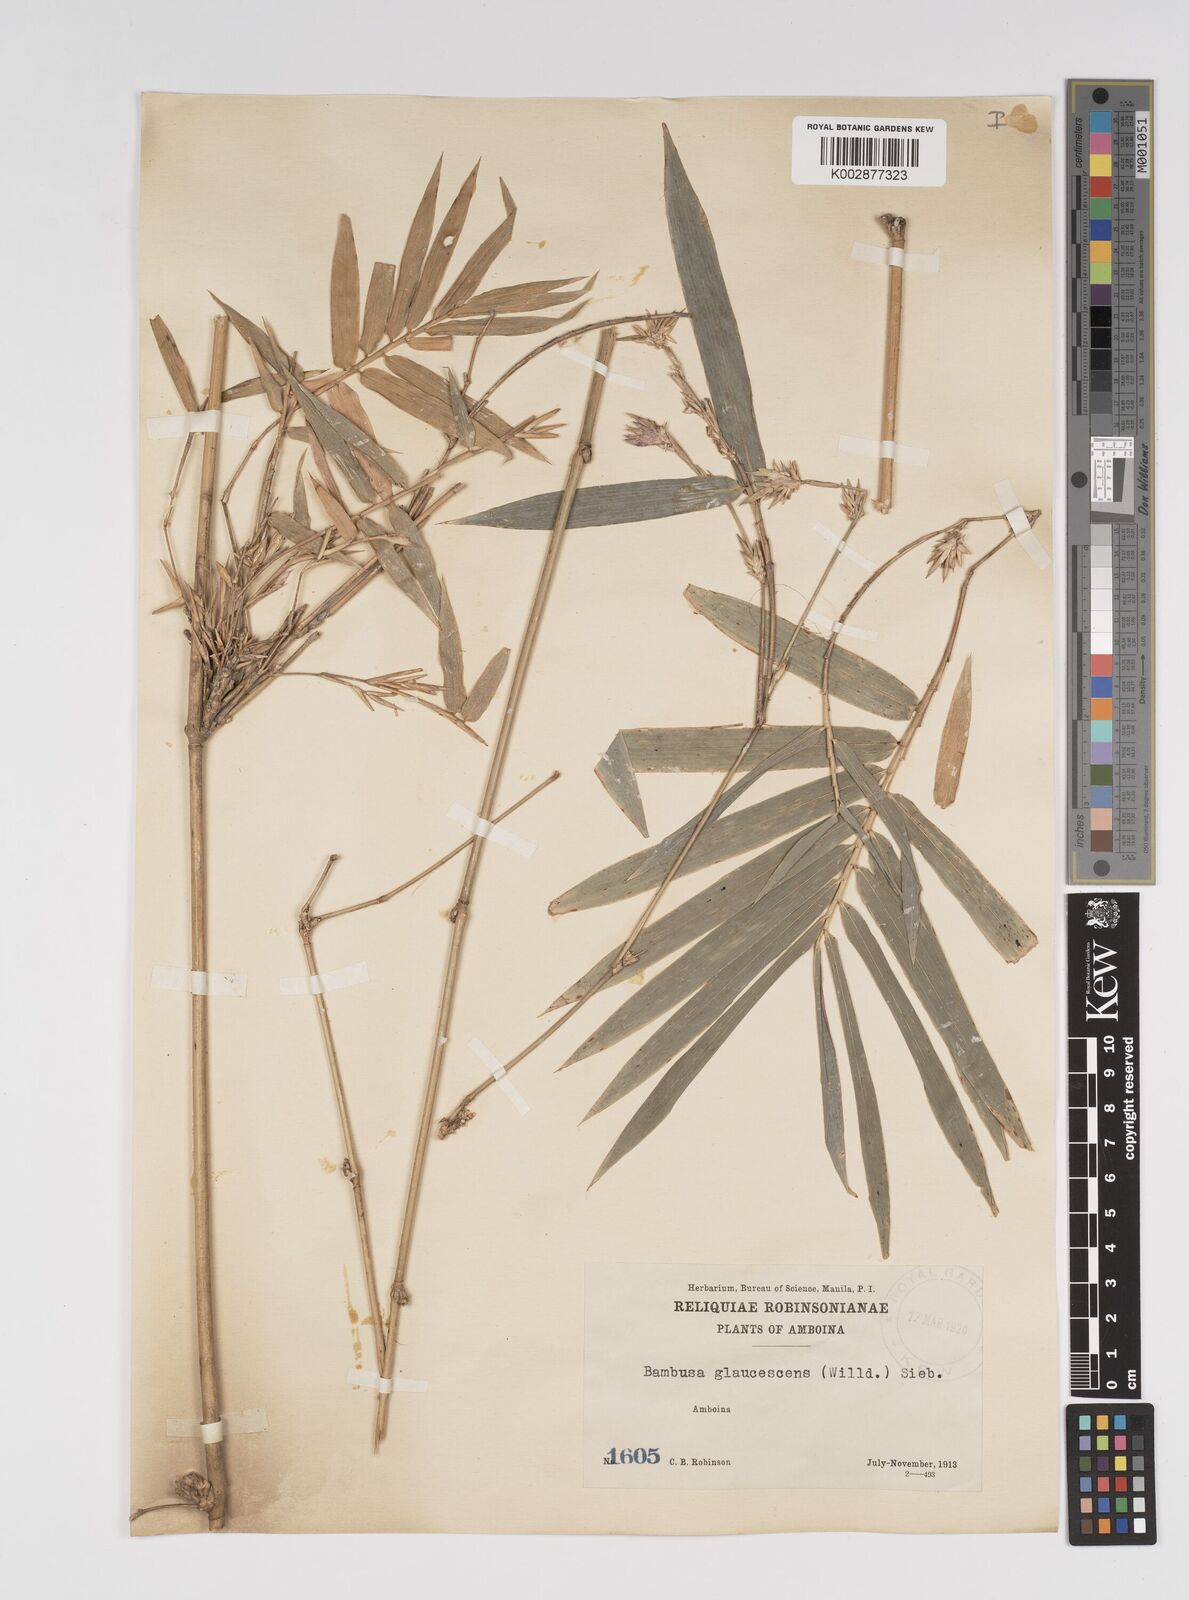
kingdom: Plantae
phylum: Tracheophyta
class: Liliopsida
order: Poales
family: Poaceae
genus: Bambusa
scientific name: Bambusa multiplex
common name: Hedge bamboo
